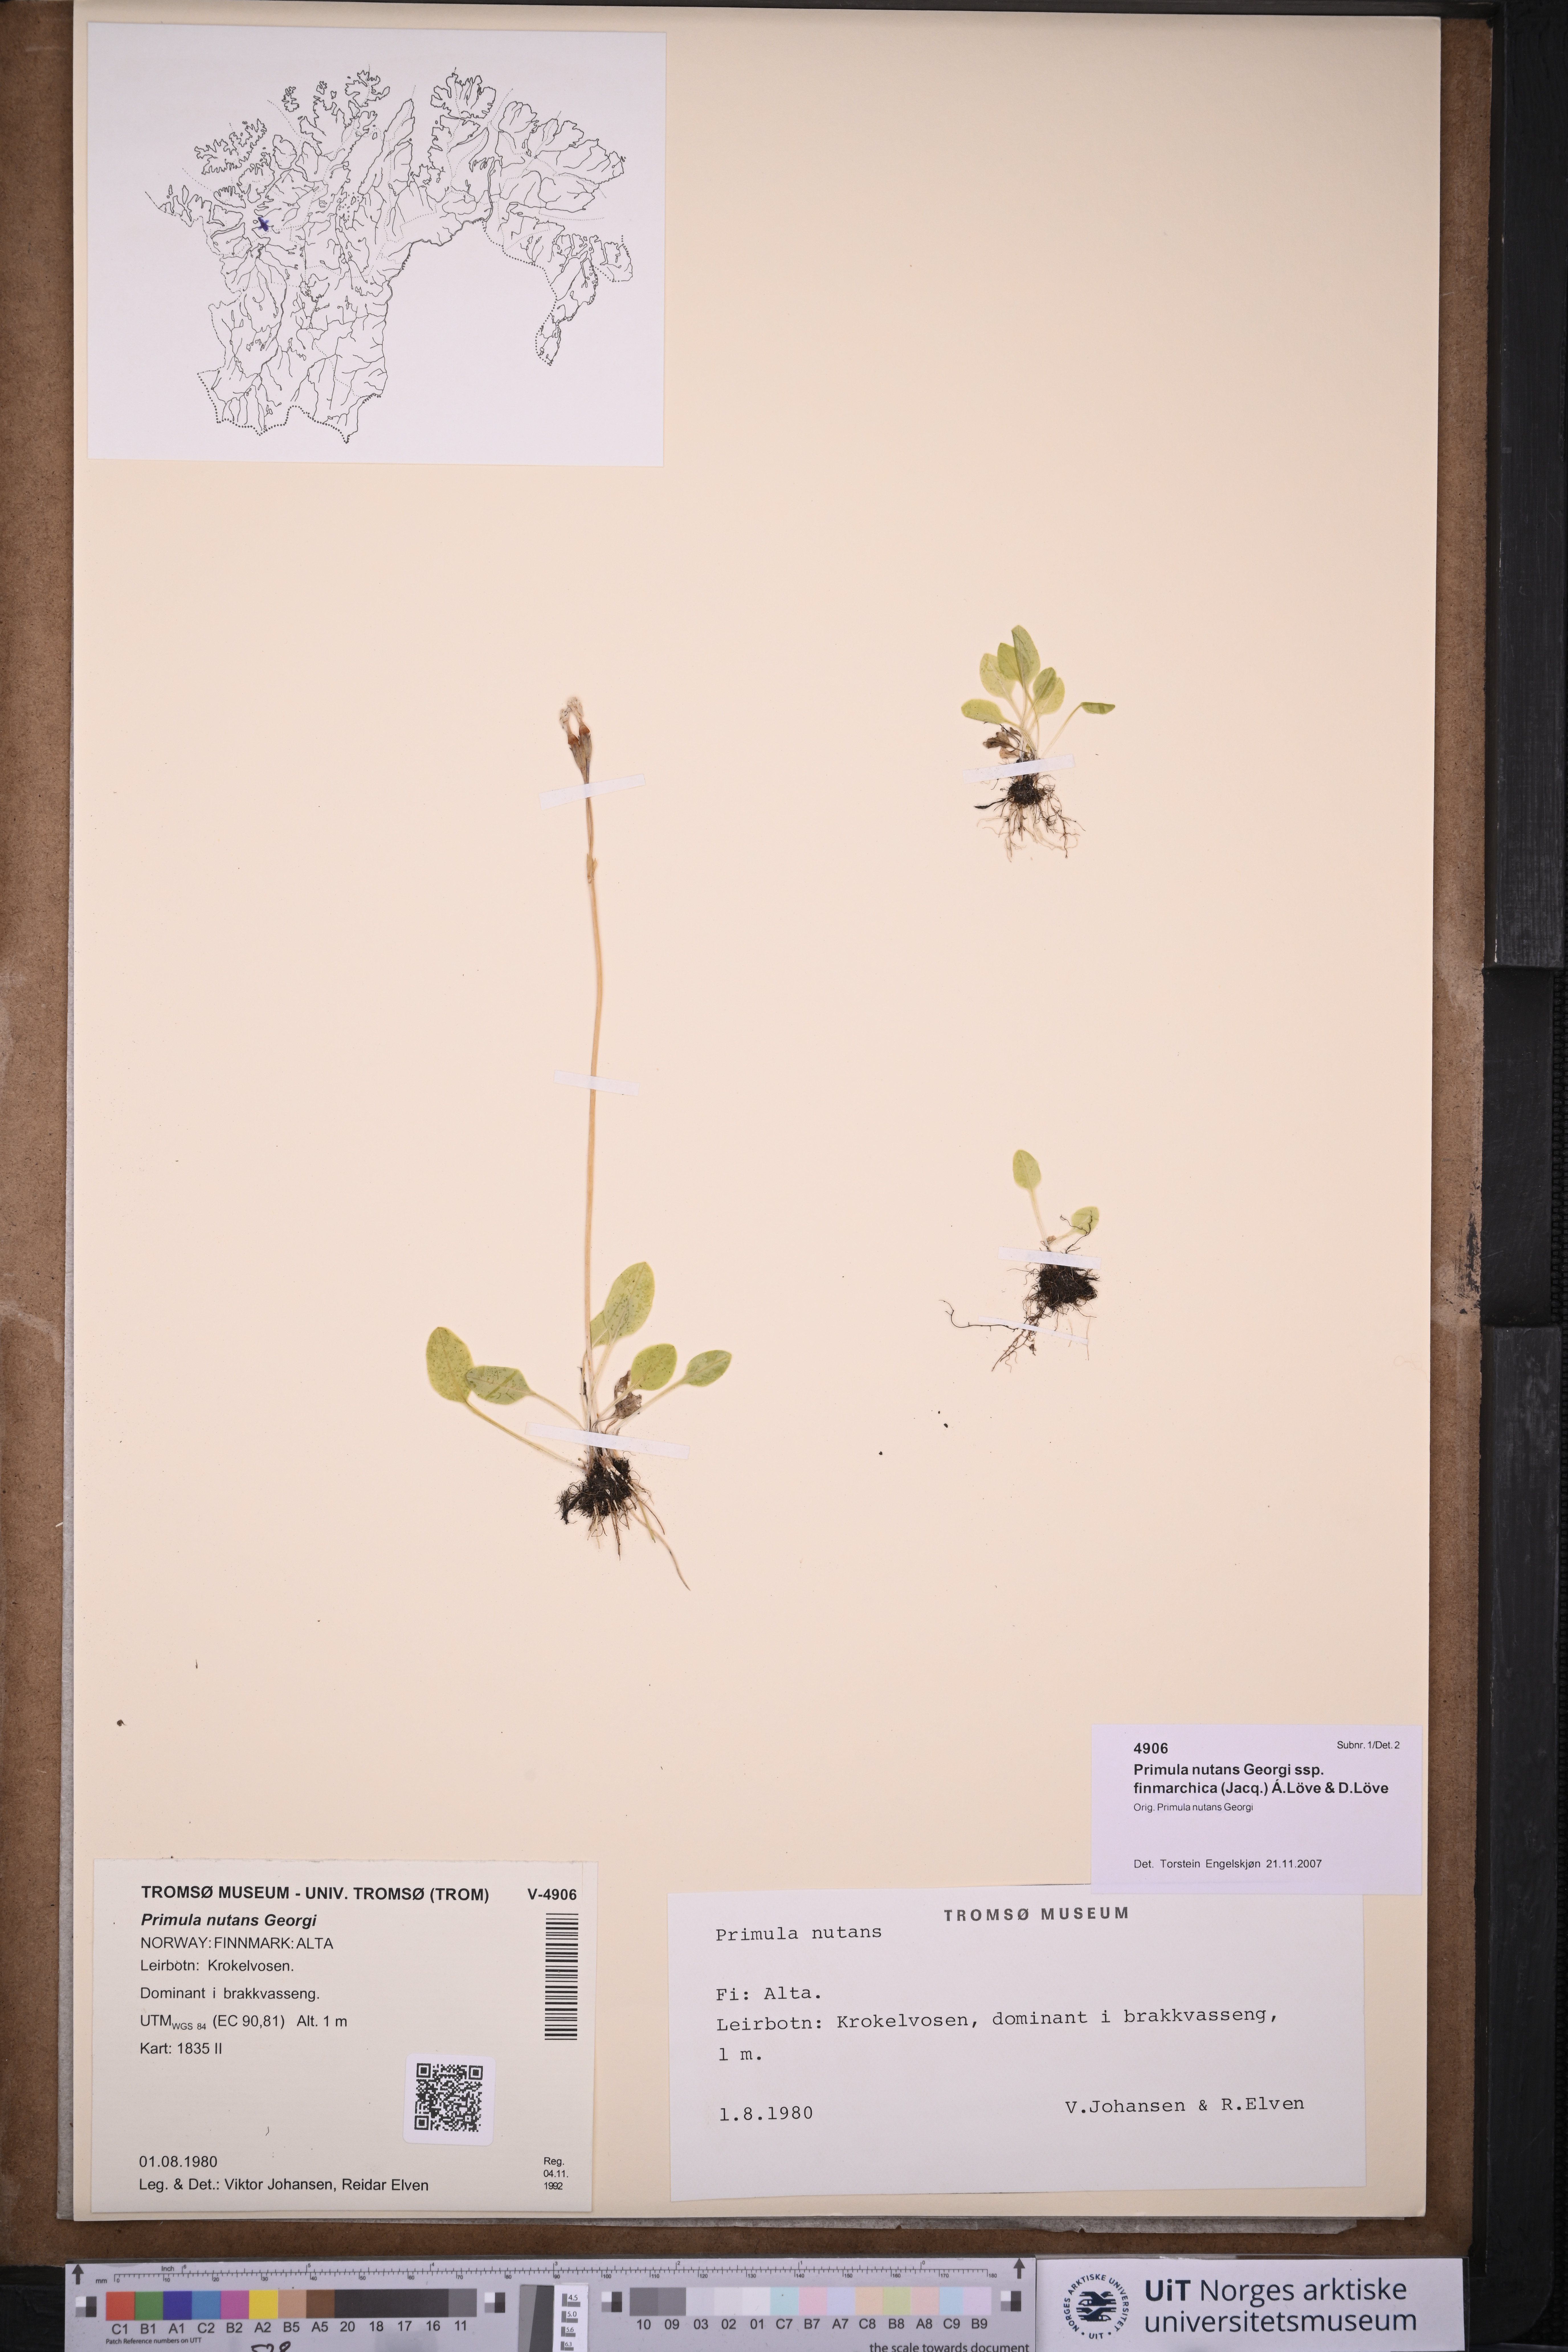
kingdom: Plantae
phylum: Tracheophyta
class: Magnoliopsida
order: Ericales
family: Primulaceae
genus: Primula
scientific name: Primula nutans
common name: Siberian primrose
